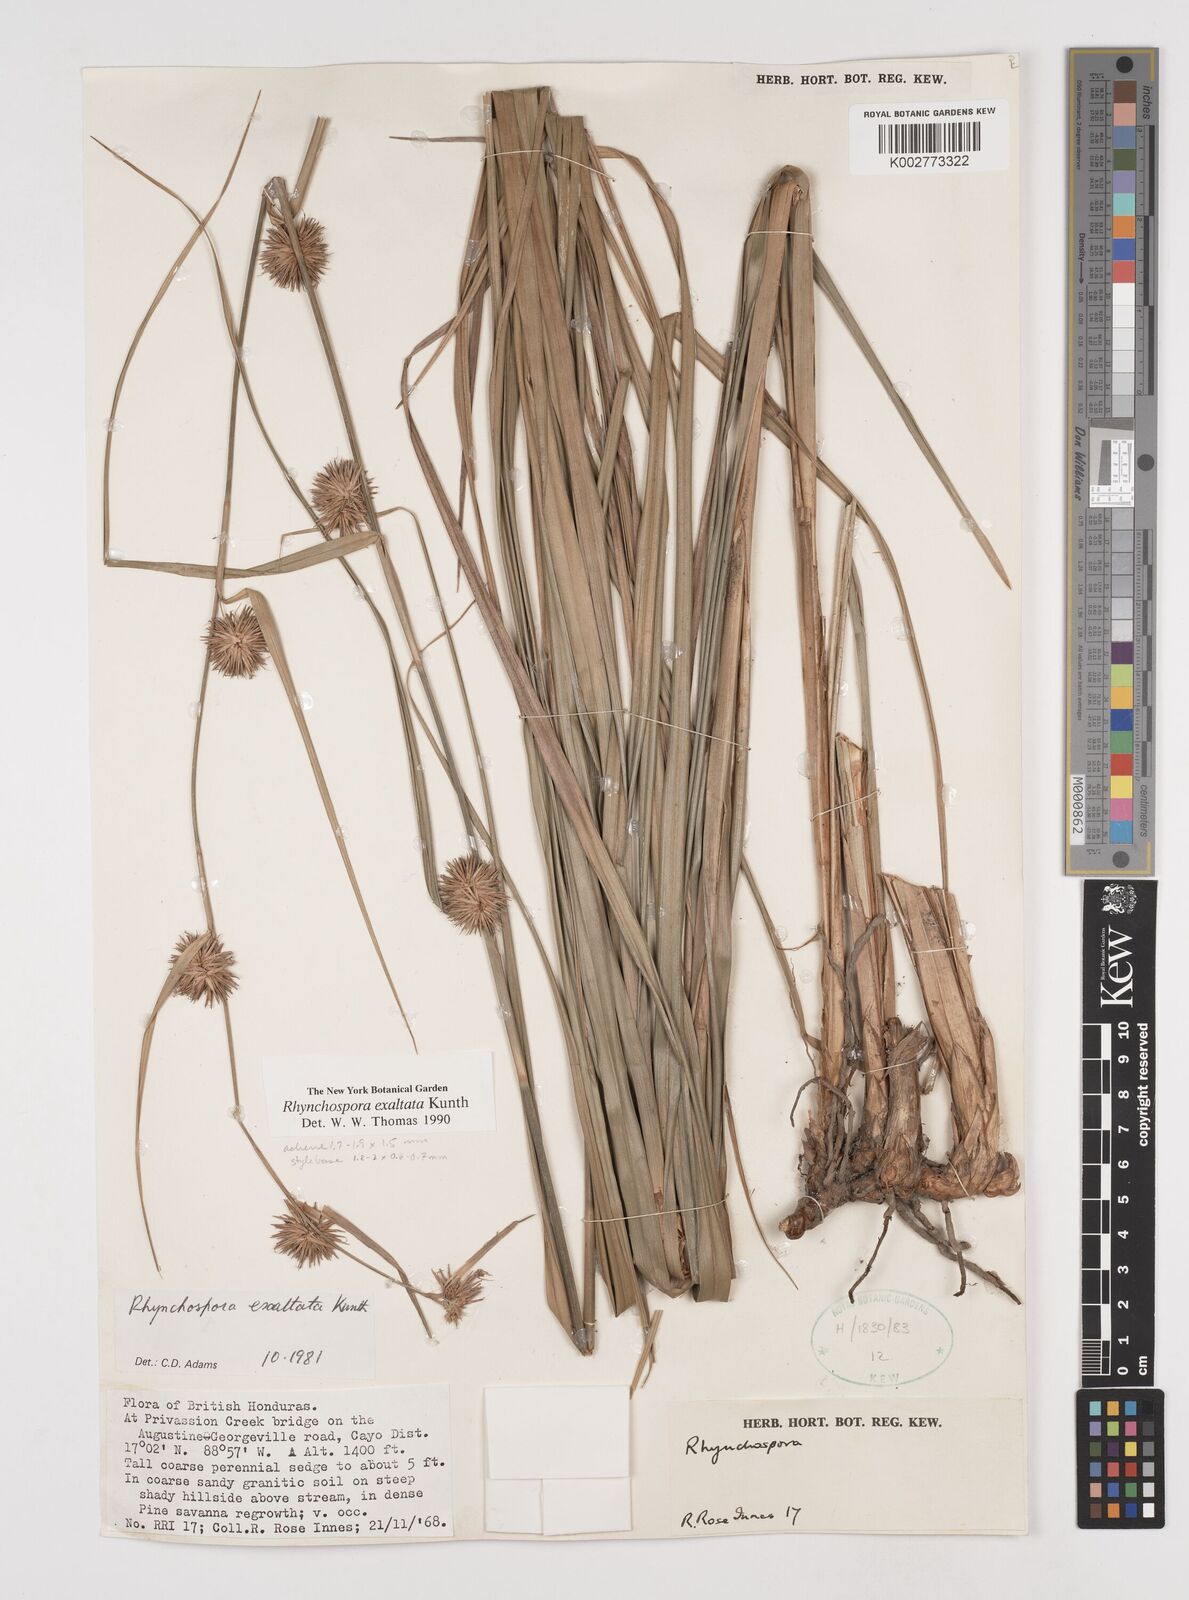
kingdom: Plantae
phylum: Tracheophyta
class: Liliopsida
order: Poales
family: Cyperaceae
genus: Rhynchospora
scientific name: Rhynchospora exaltata
